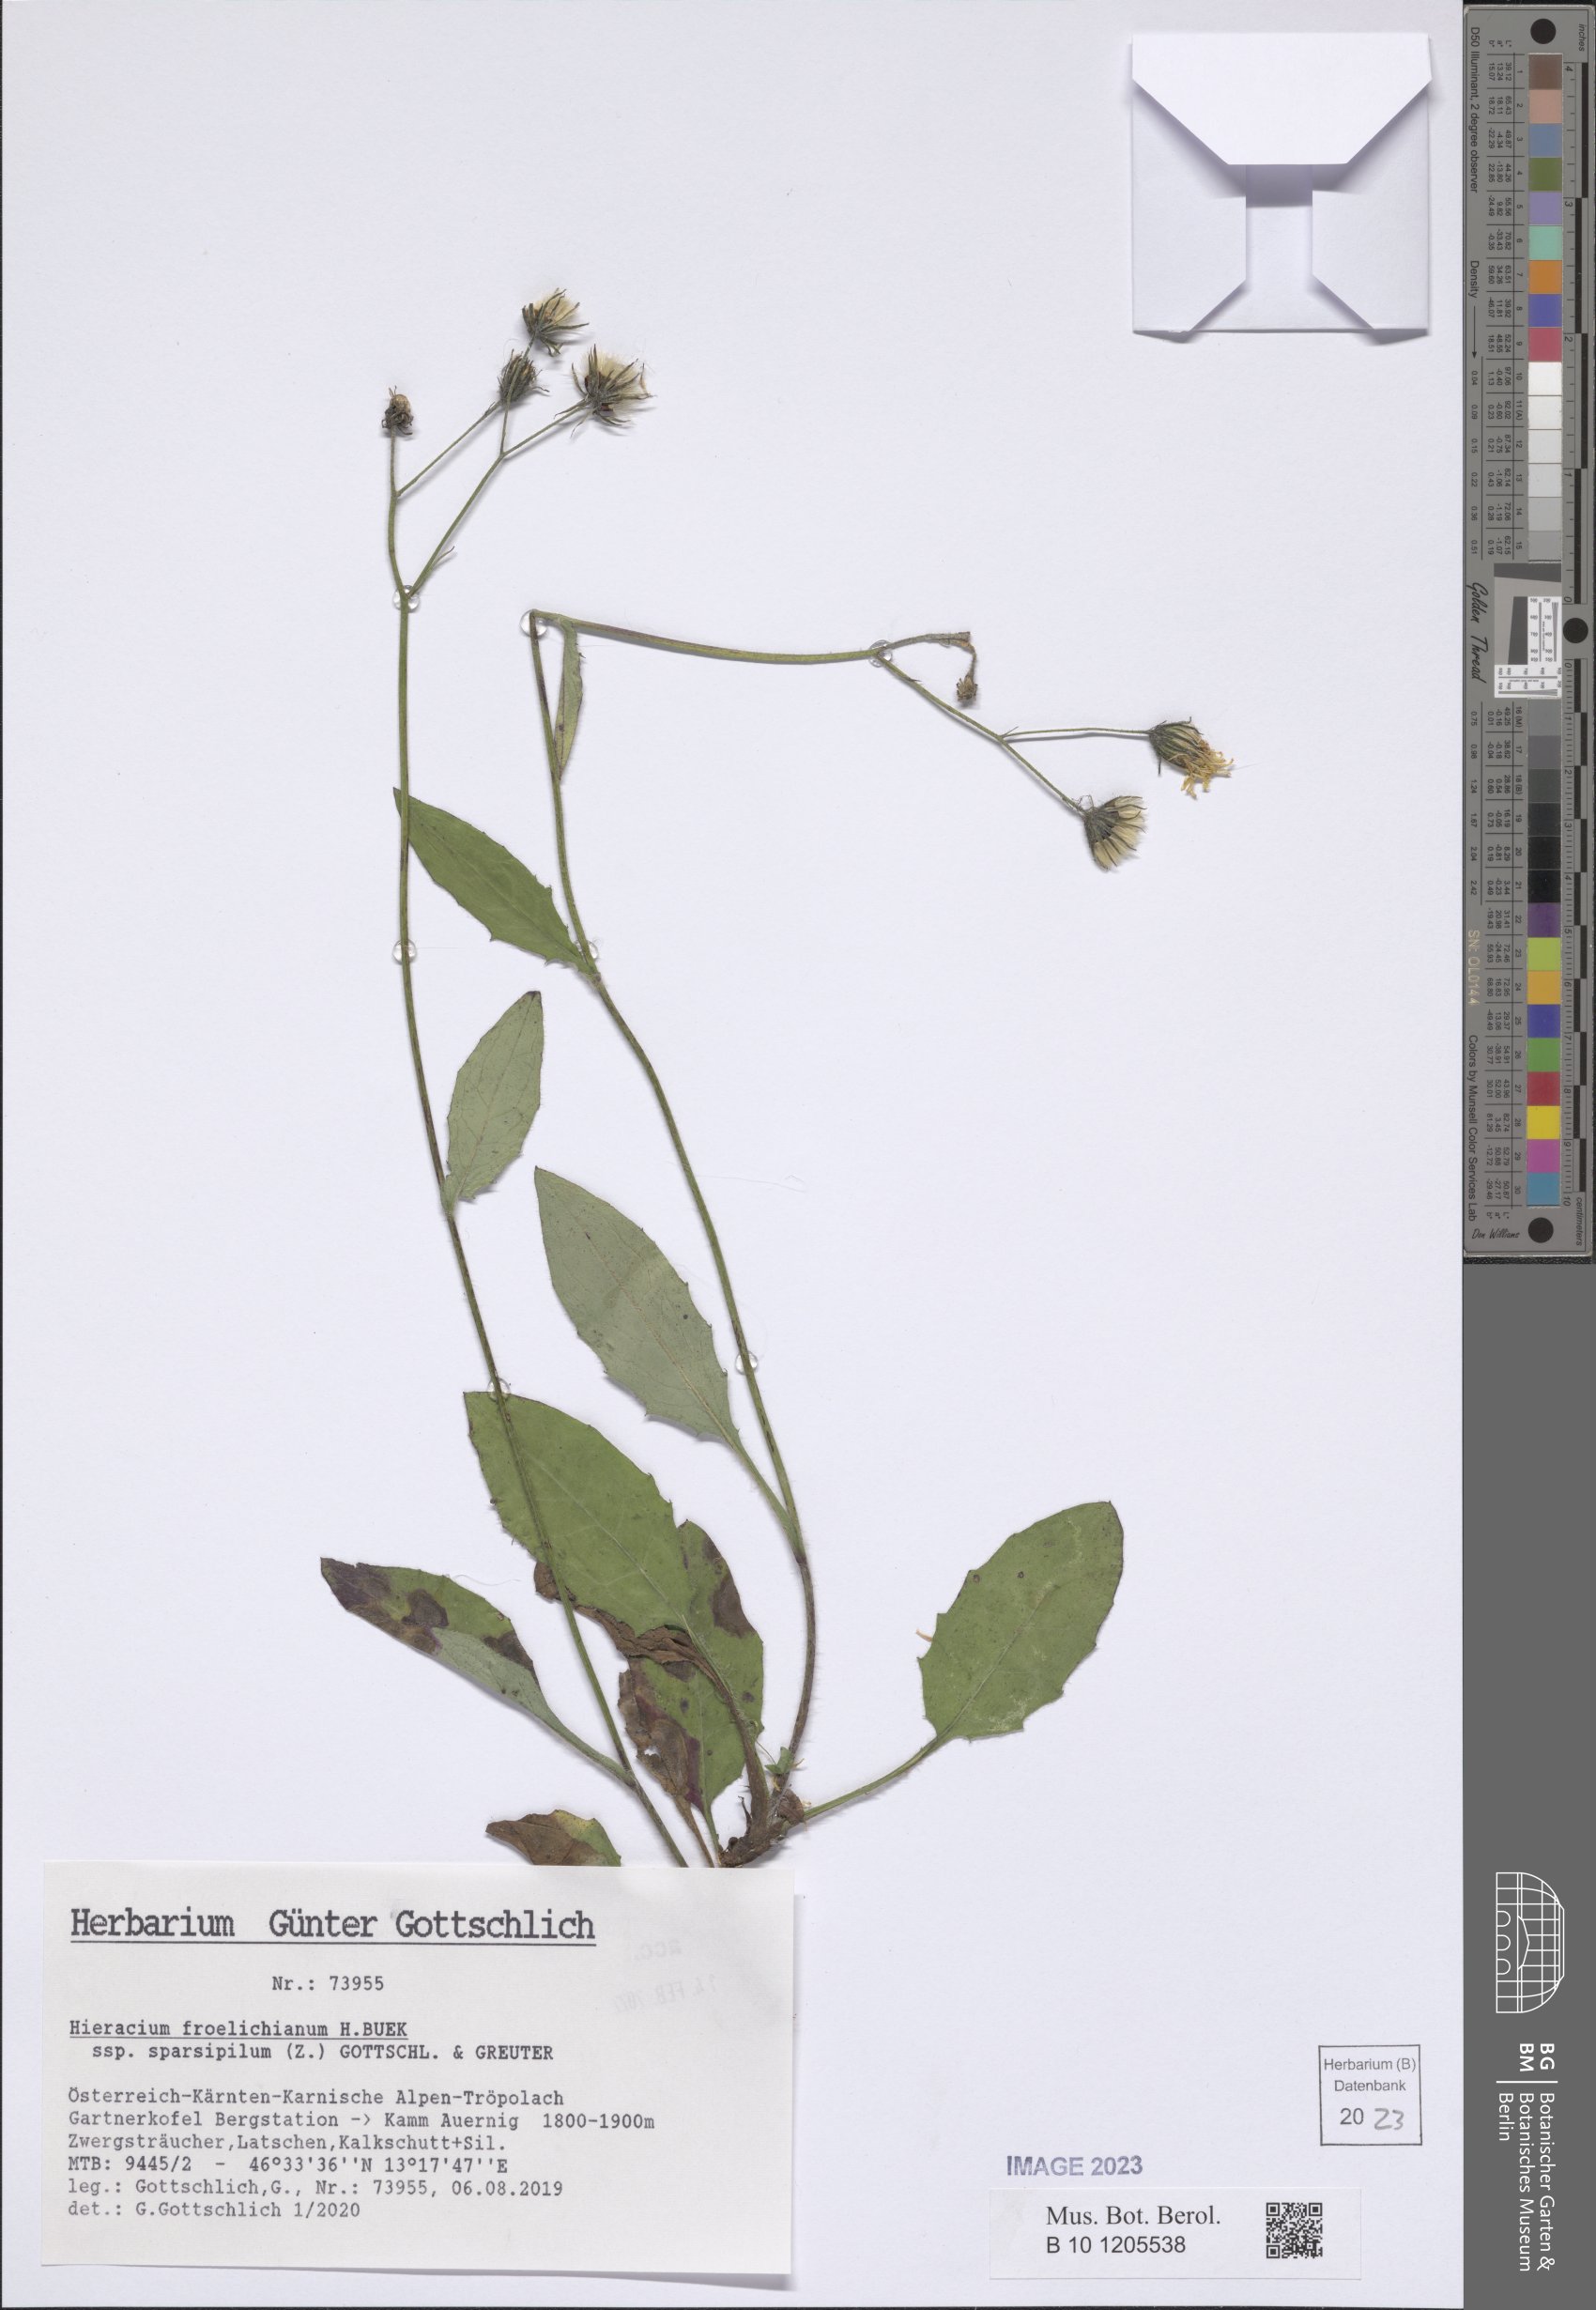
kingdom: Plantae
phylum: Tracheophyta
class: Magnoliopsida
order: Asterales
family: Asteraceae
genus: Hieracium
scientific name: Hieracium froelichianum
